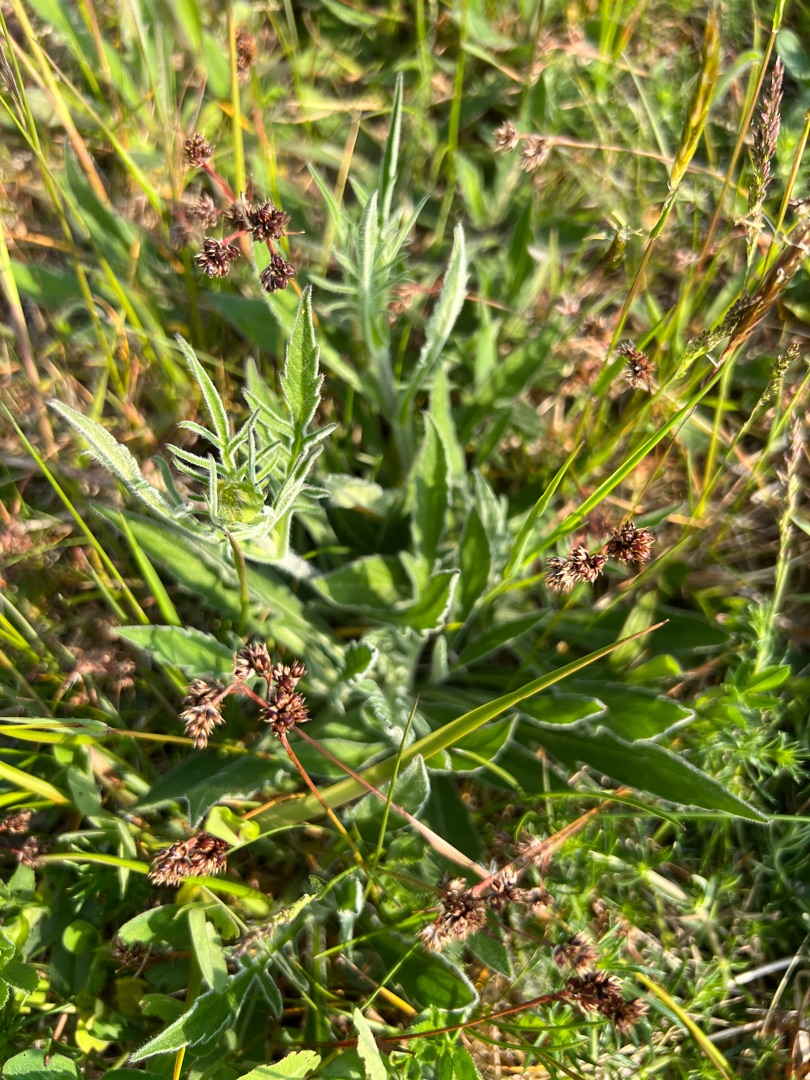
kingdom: Plantae
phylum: Tracheophyta
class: Magnoliopsida
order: Dipsacales
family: Caprifoliaceae
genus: Knautia
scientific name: Knautia arvensis
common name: Blåhat
